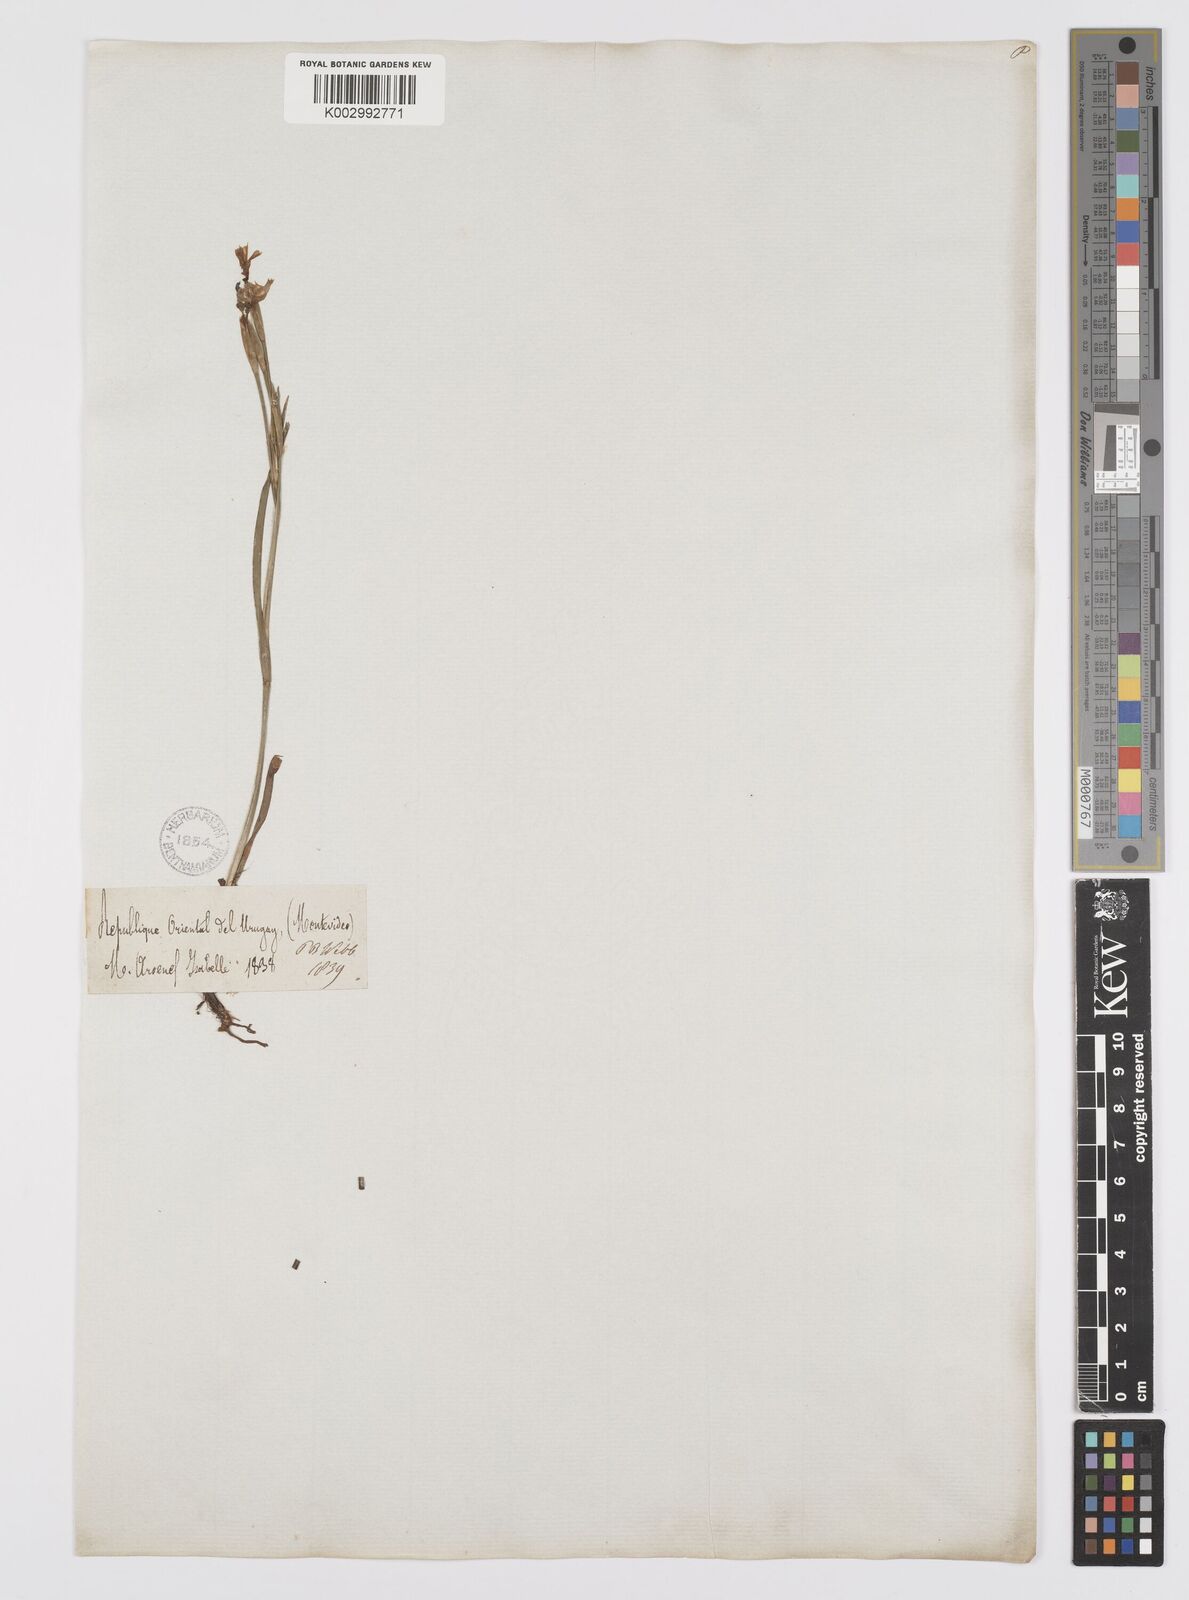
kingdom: Plantae
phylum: Tracheophyta
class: Liliopsida
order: Asparagales
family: Iridaceae
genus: Sisyrinchium
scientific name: Sisyrinchium chilense
